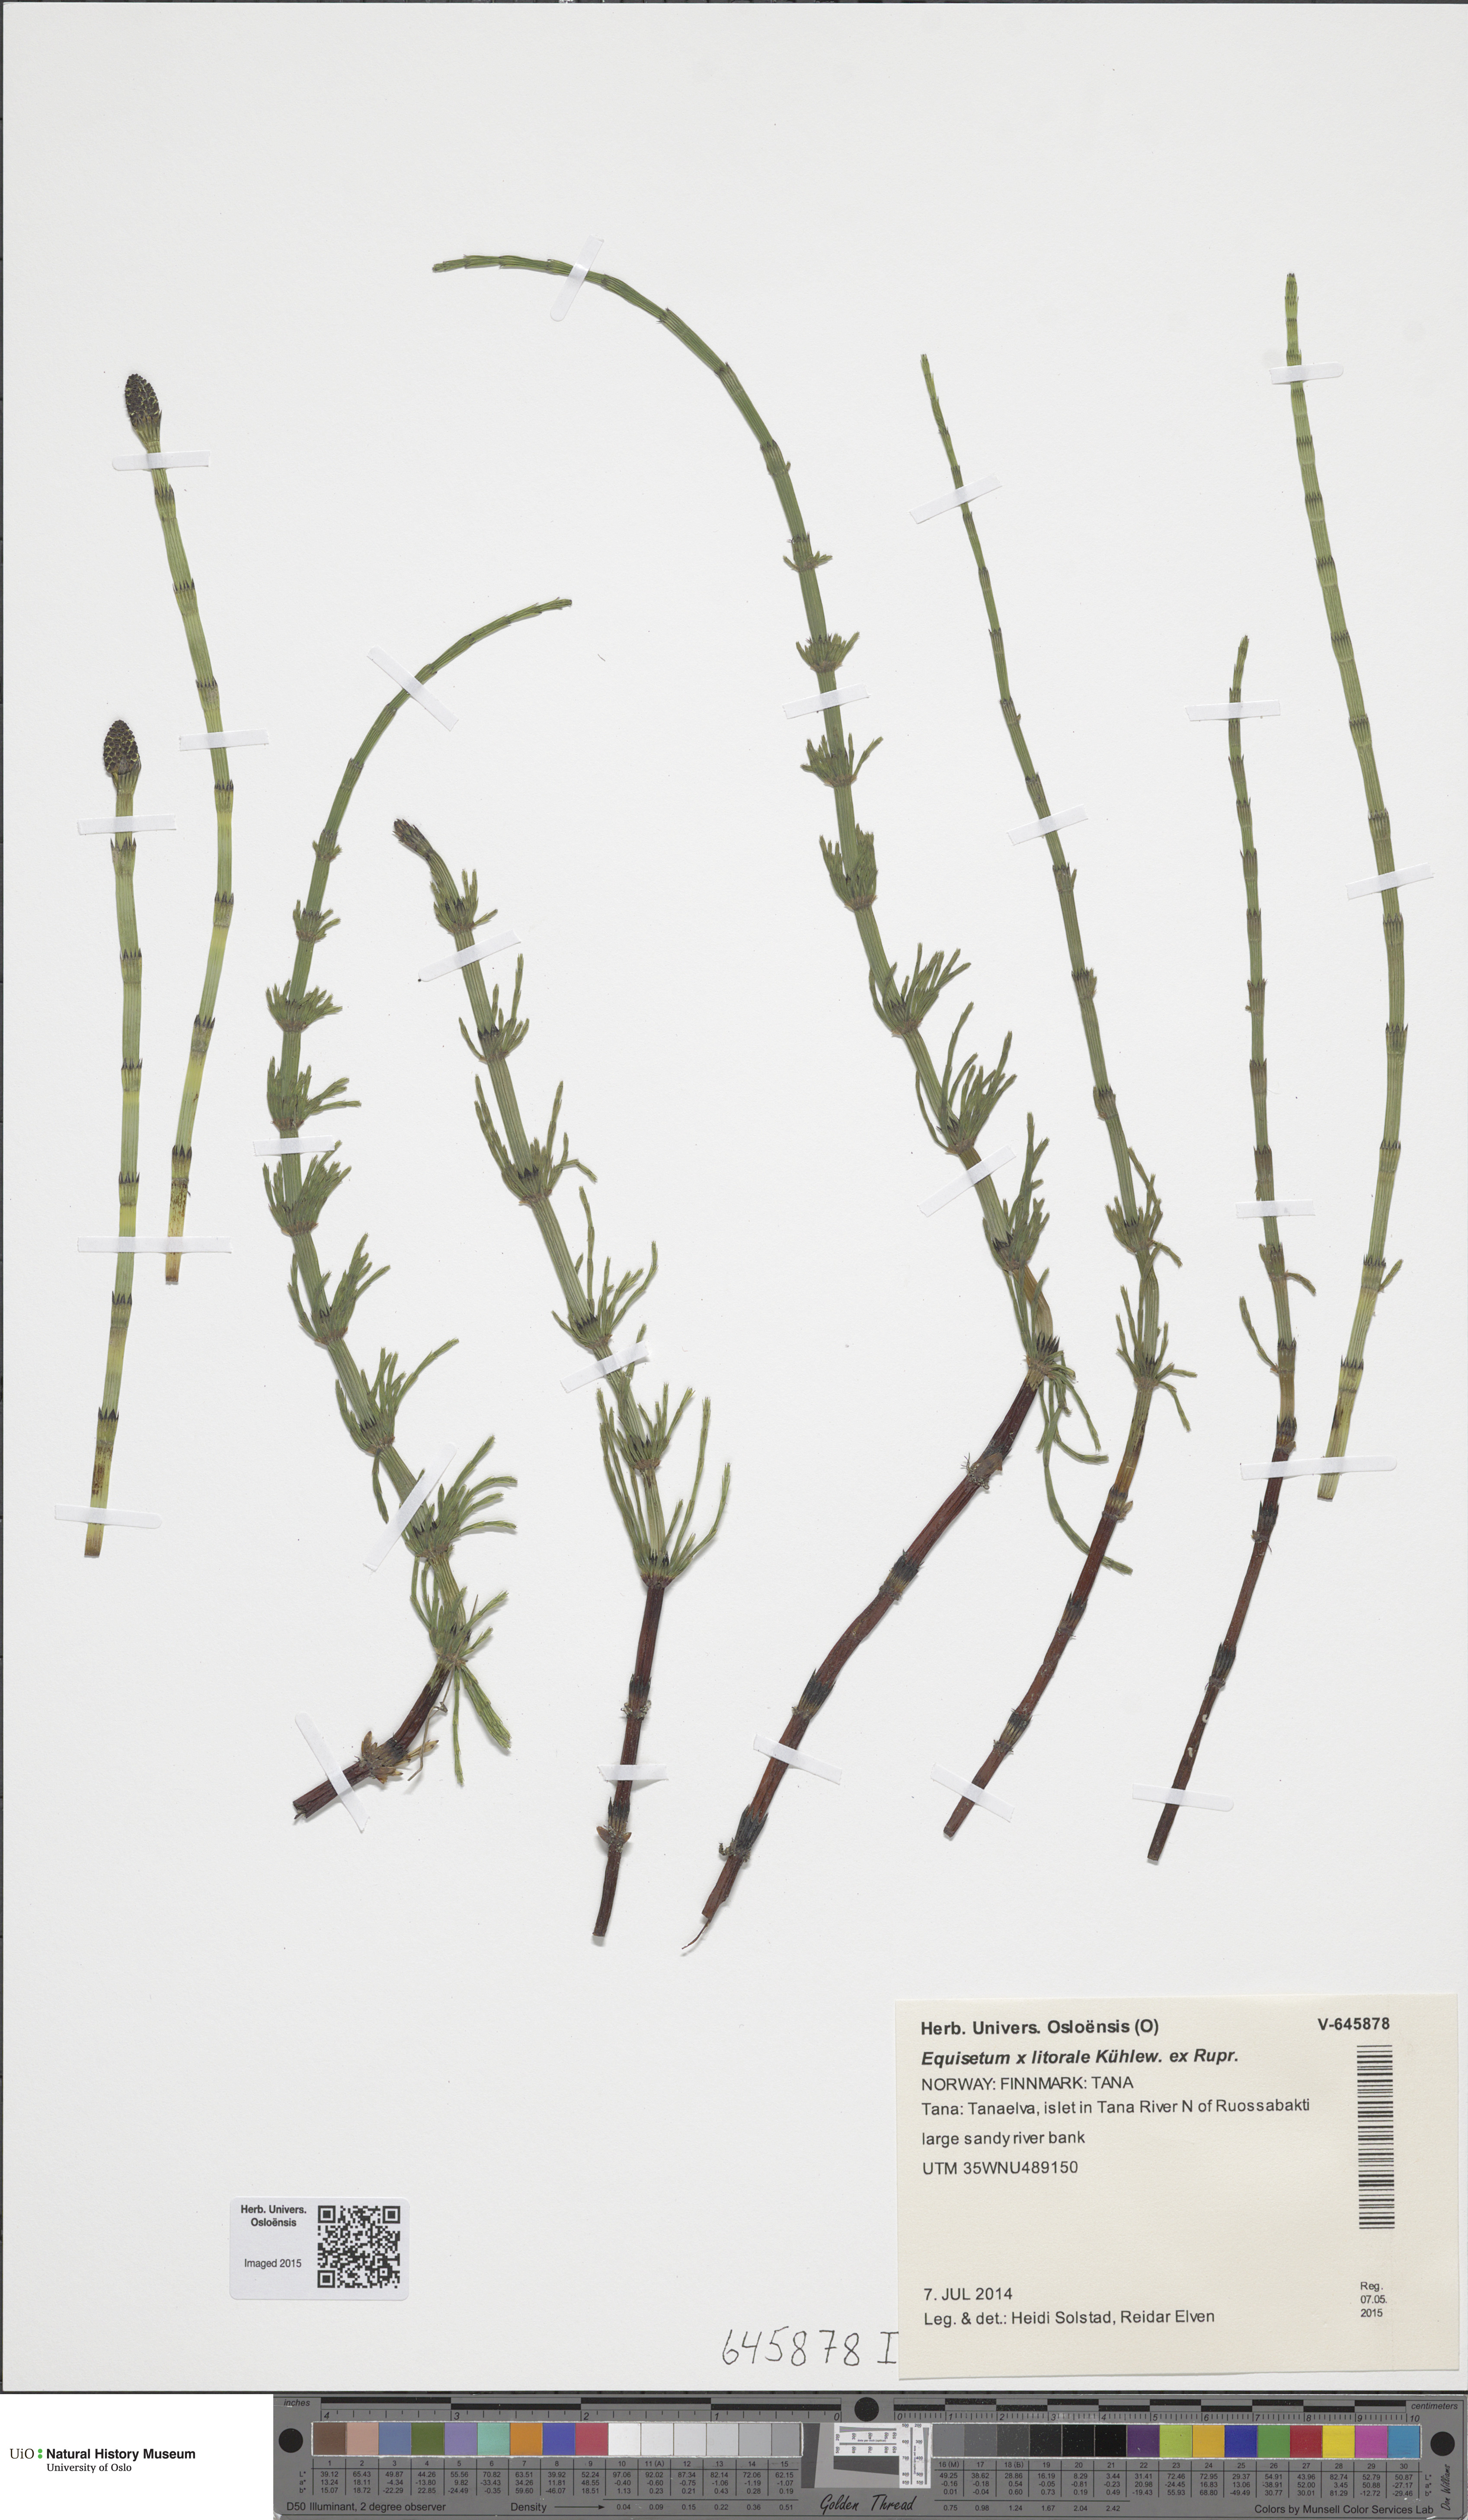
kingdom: Plantae
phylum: Tracheophyta
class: Polypodiopsida
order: Equisetales
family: Equisetaceae
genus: Equisetum
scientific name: Equisetum litorale
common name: Littoral horsetail
